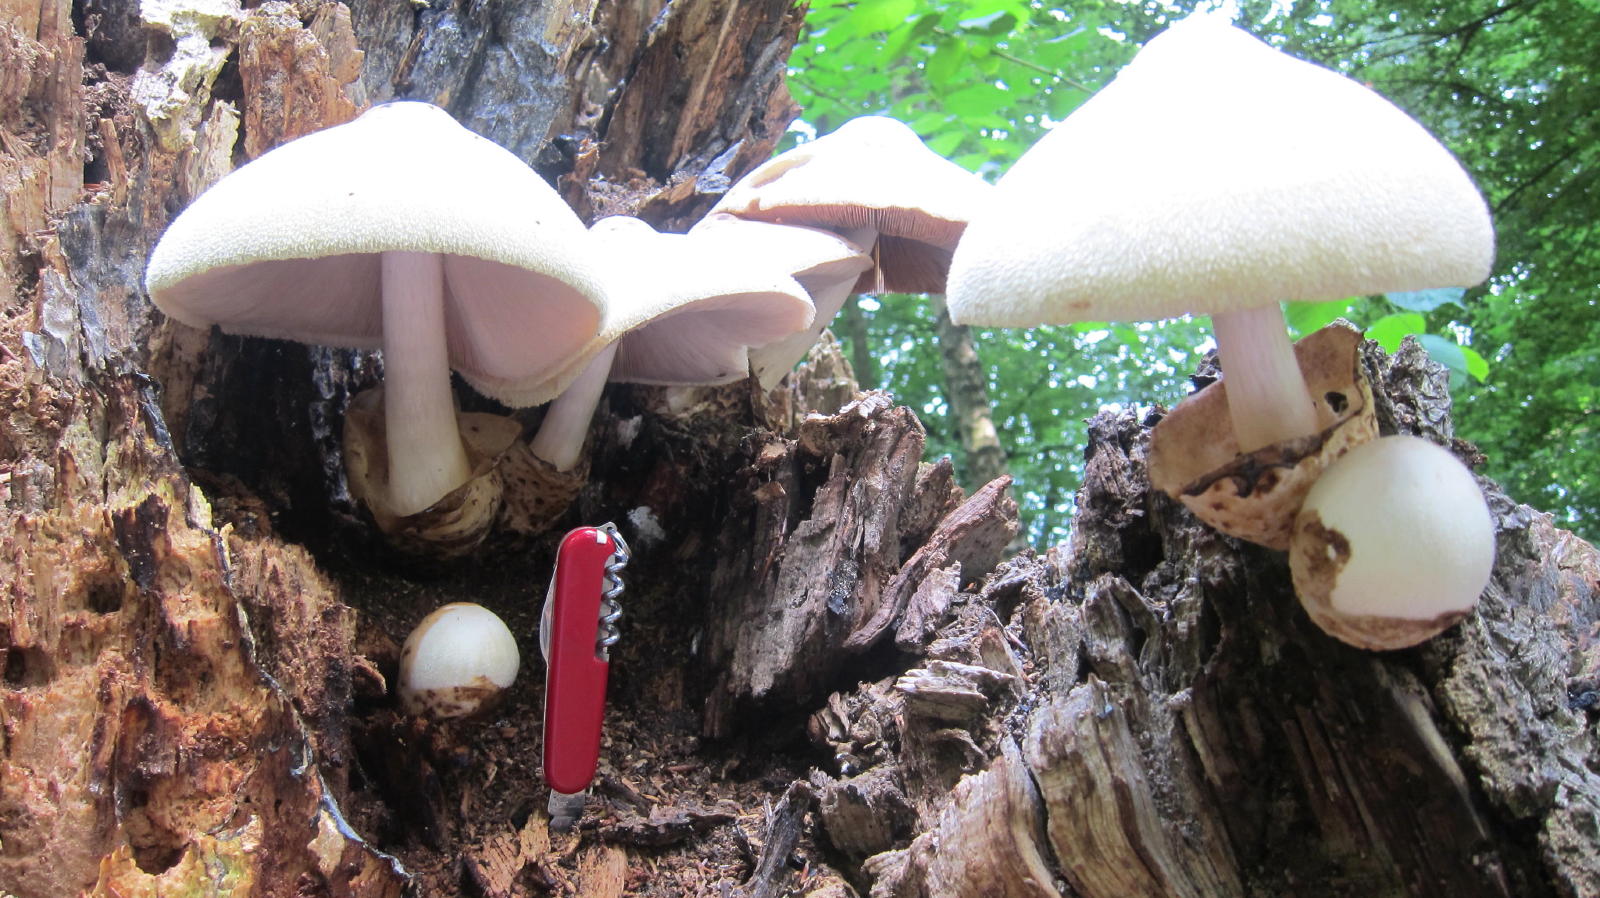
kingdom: Fungi
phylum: Basidiomycota
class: Agaricomycetes
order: Agaricales
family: Pluteaceae
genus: Volvariella
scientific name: Volvariella bombycina
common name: silkehåret posesvamp
